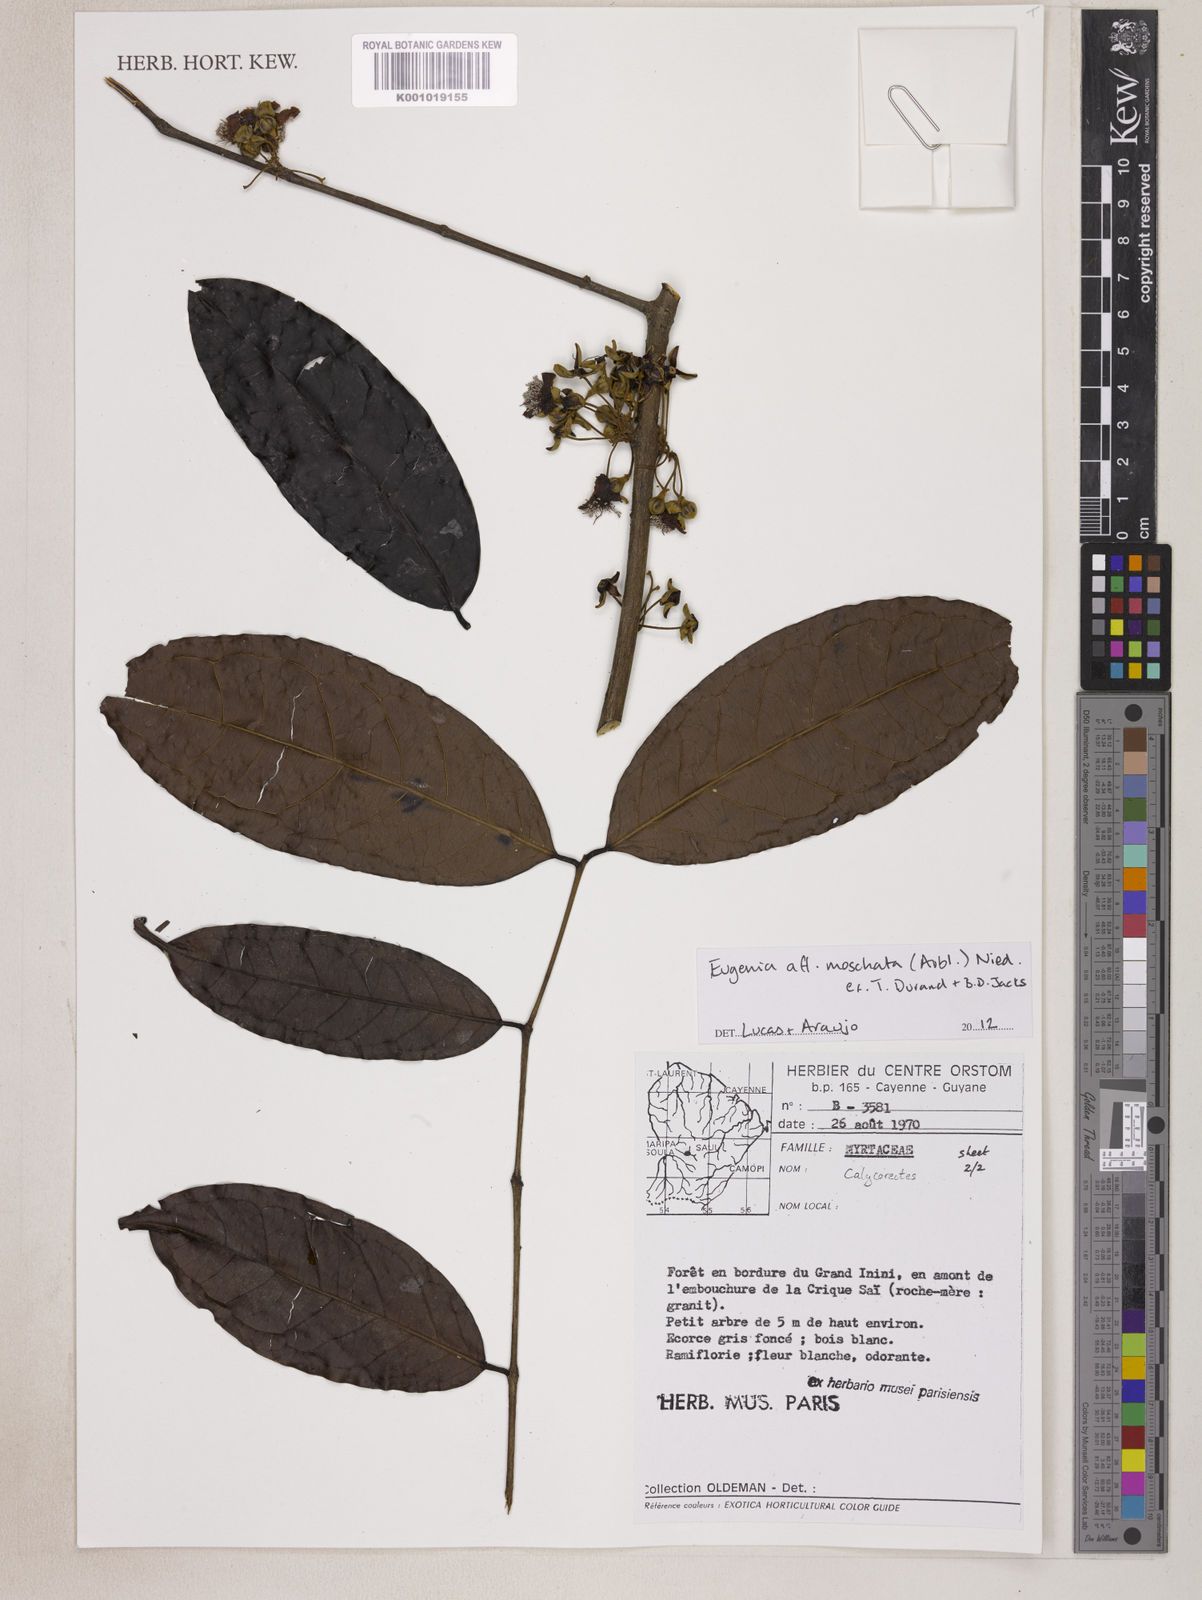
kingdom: Plantae
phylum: Tracheophyta
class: Magnoliopsida
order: Myrtales
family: Myrtaceae
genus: Eugenia
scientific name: Eugenia moschata
